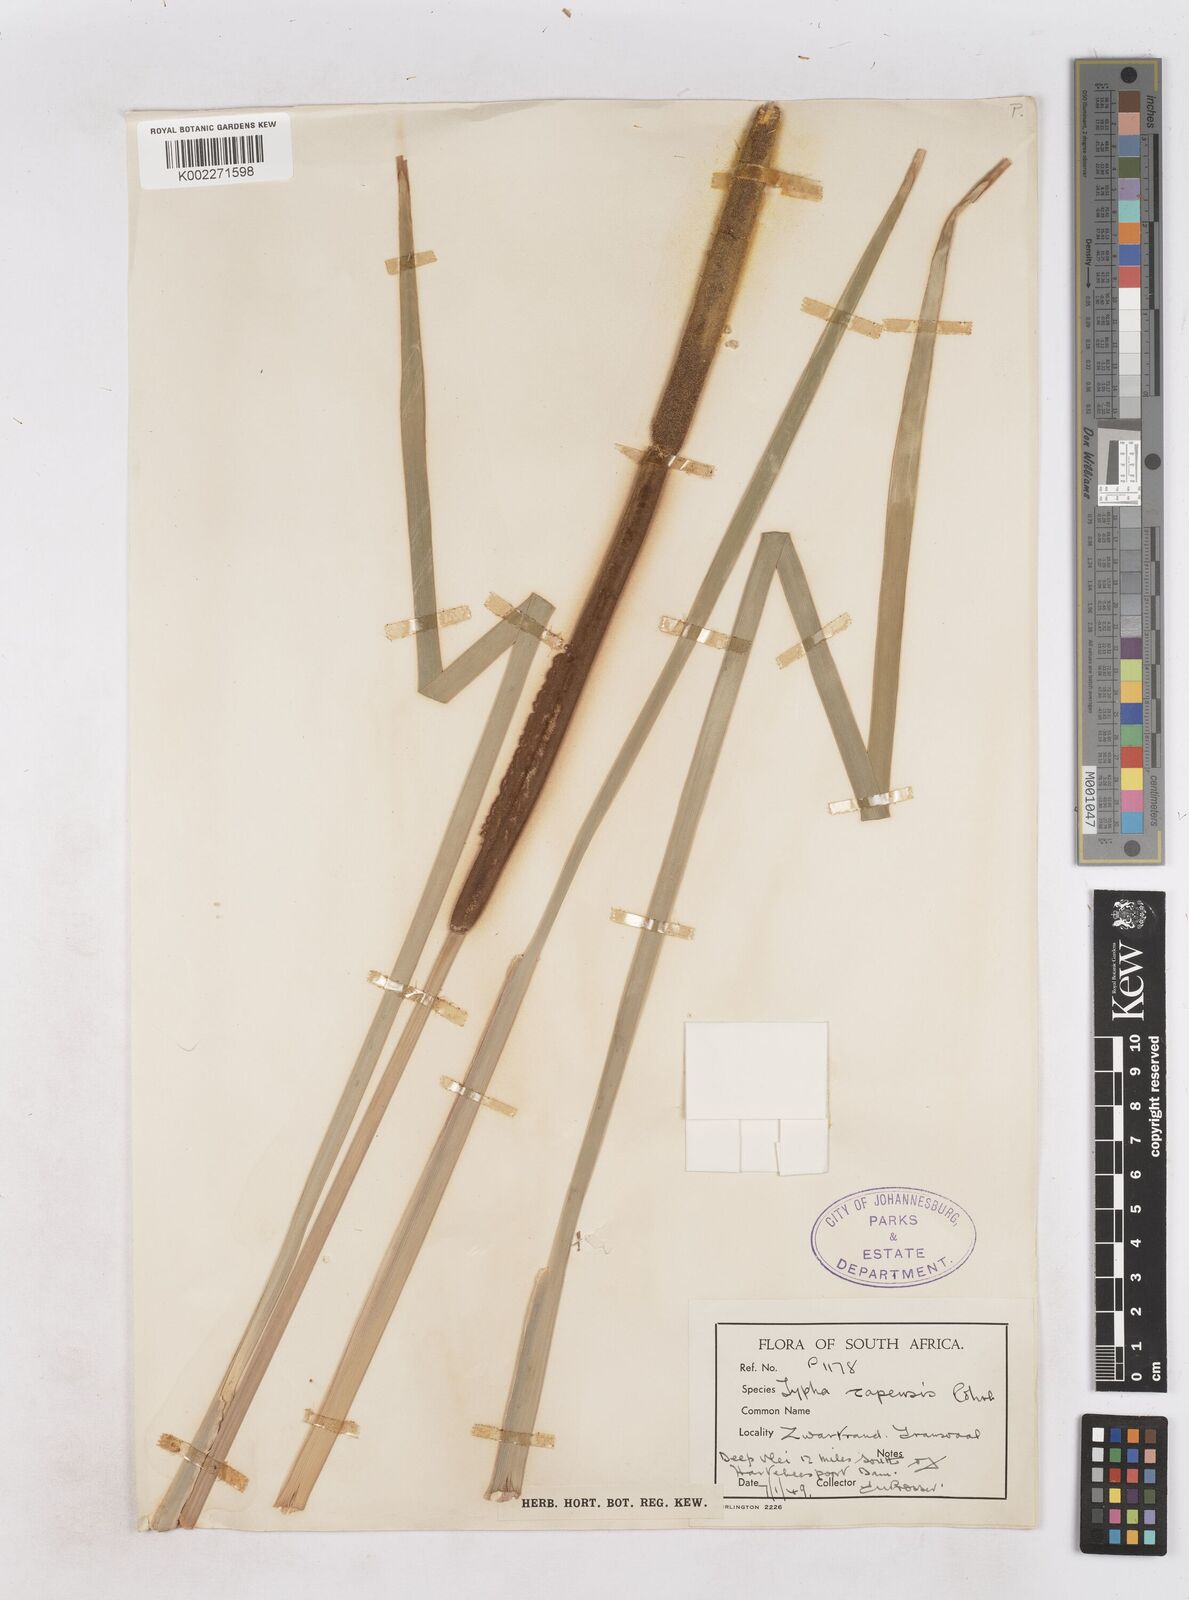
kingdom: Plantae
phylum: Tracheophyta
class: Liliopsida
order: Poales
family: Typhaceae
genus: Typha
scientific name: Typha capensis
